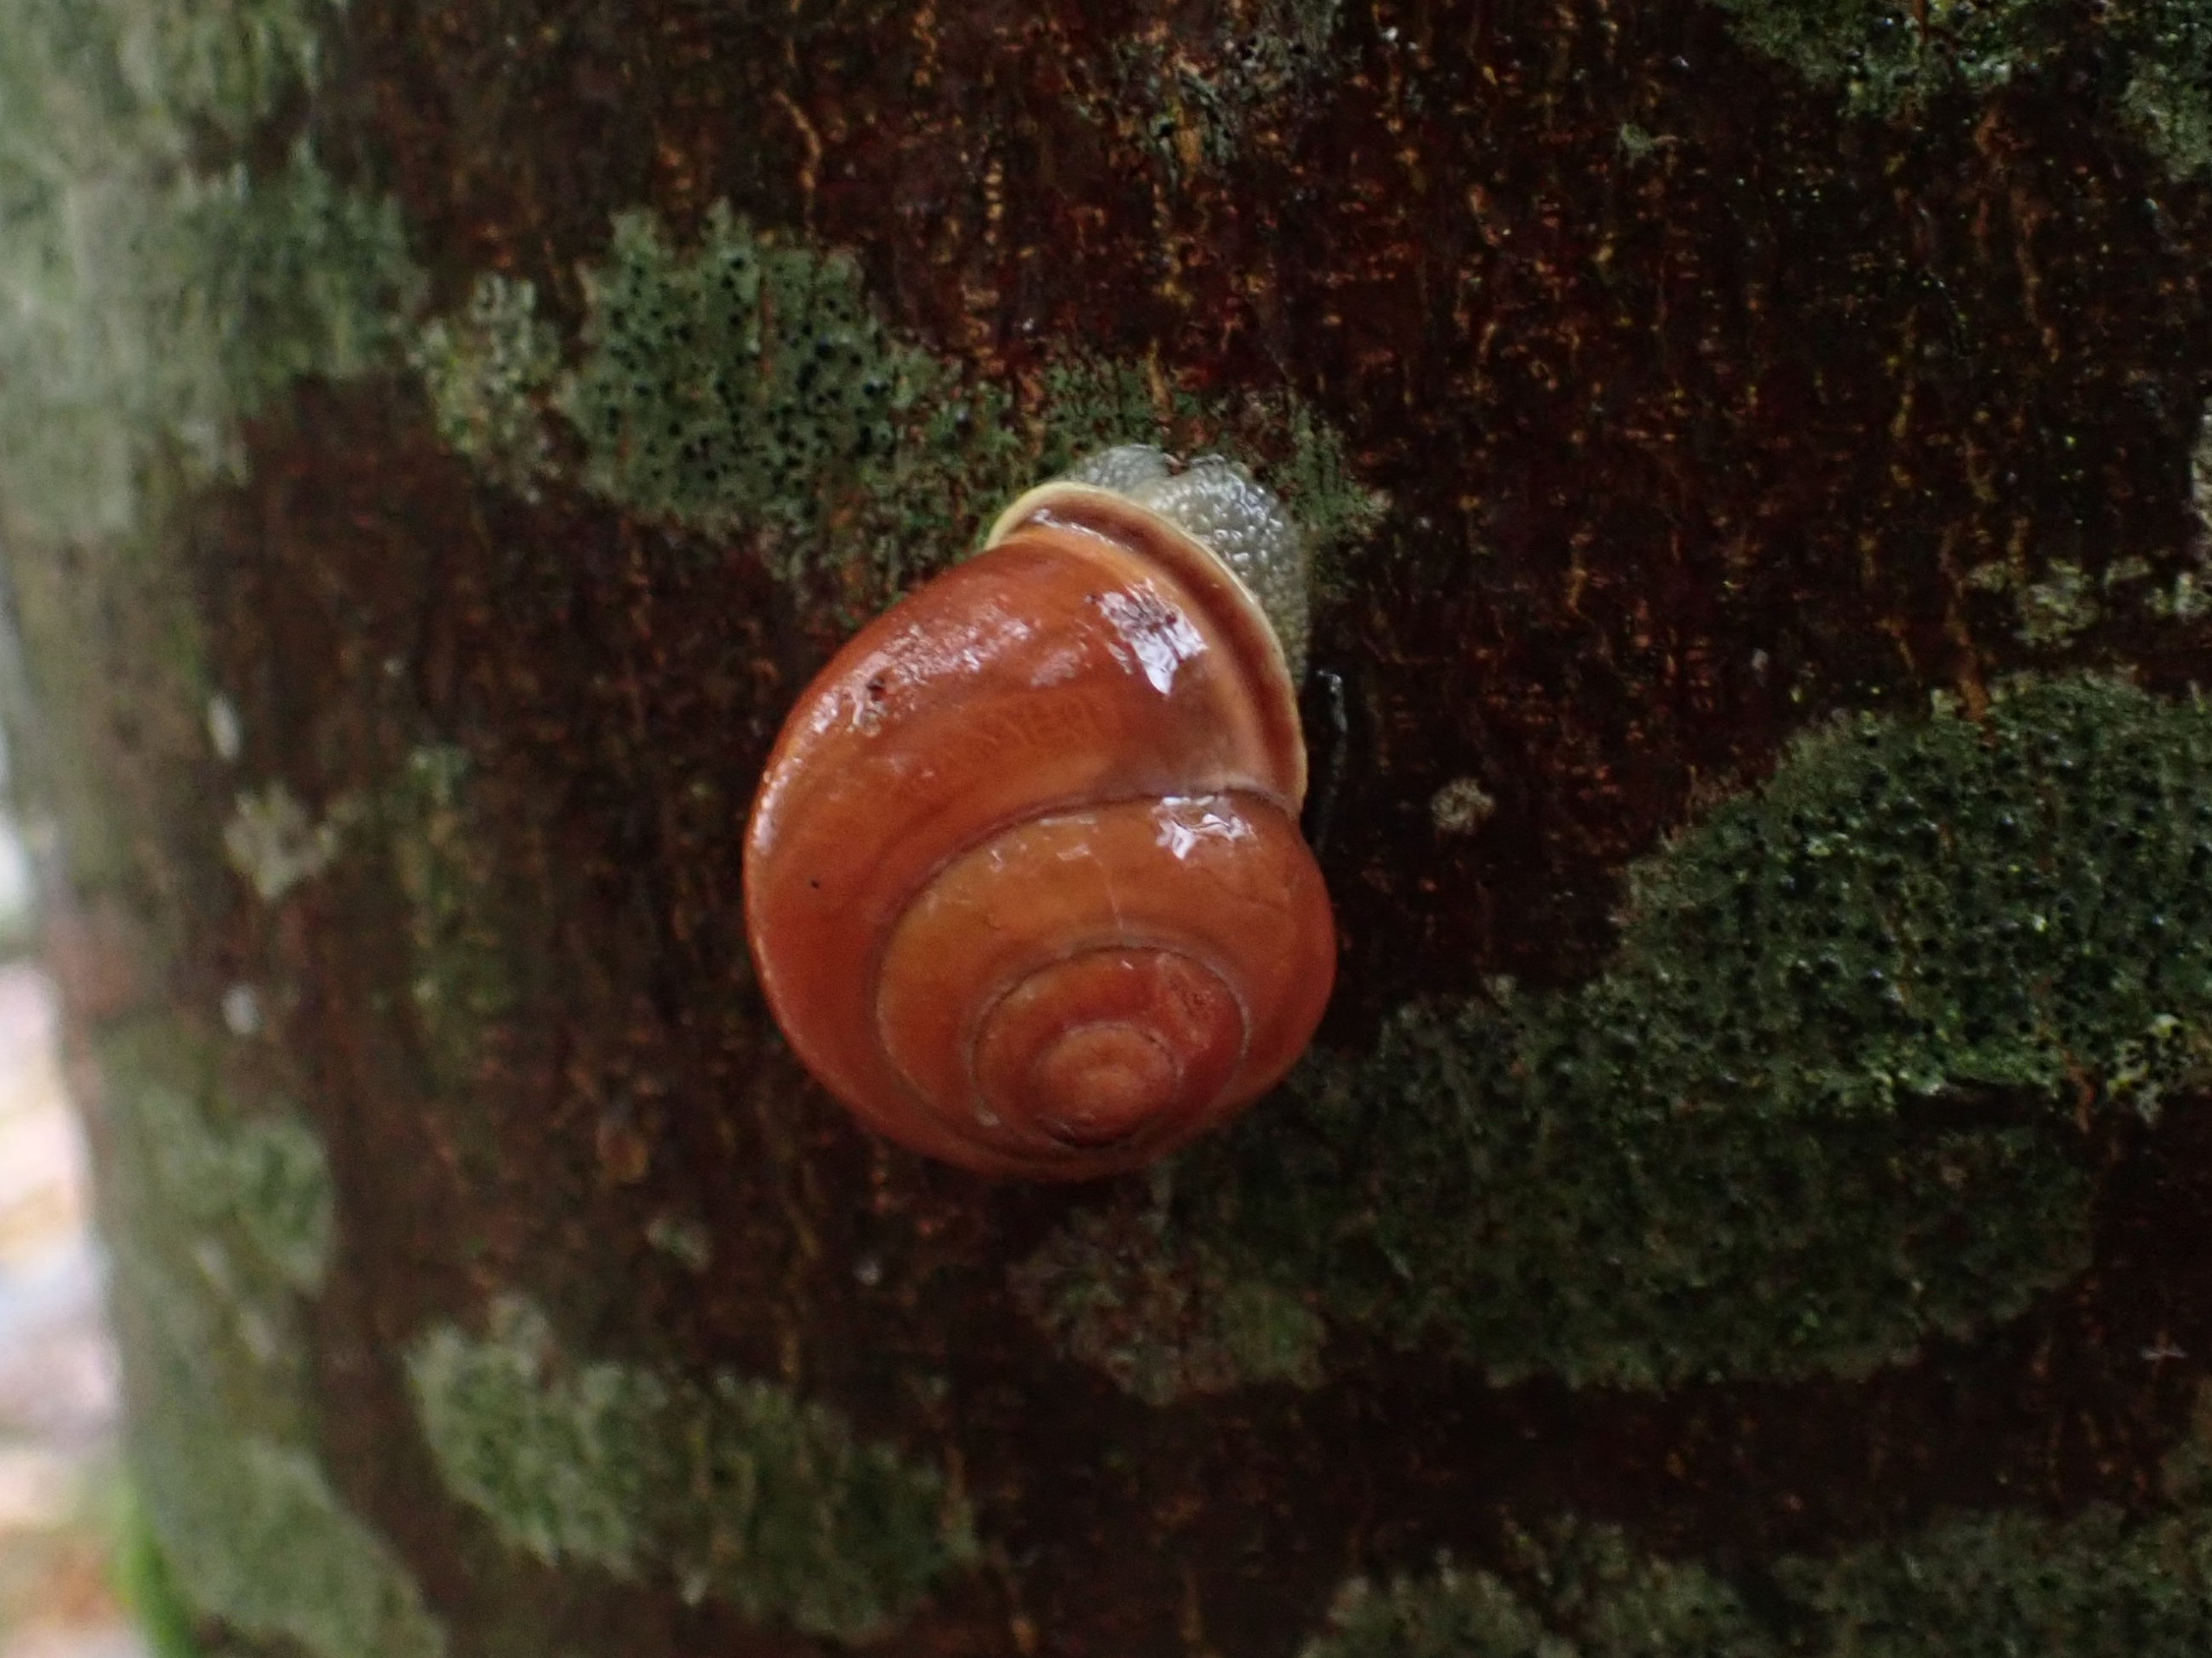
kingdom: Animalia
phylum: Mollusca
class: Gastropoda
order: Stylommatophora
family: Helicidae
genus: Cepaea
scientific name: Cepaea nemoralis
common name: Lundsnegl
